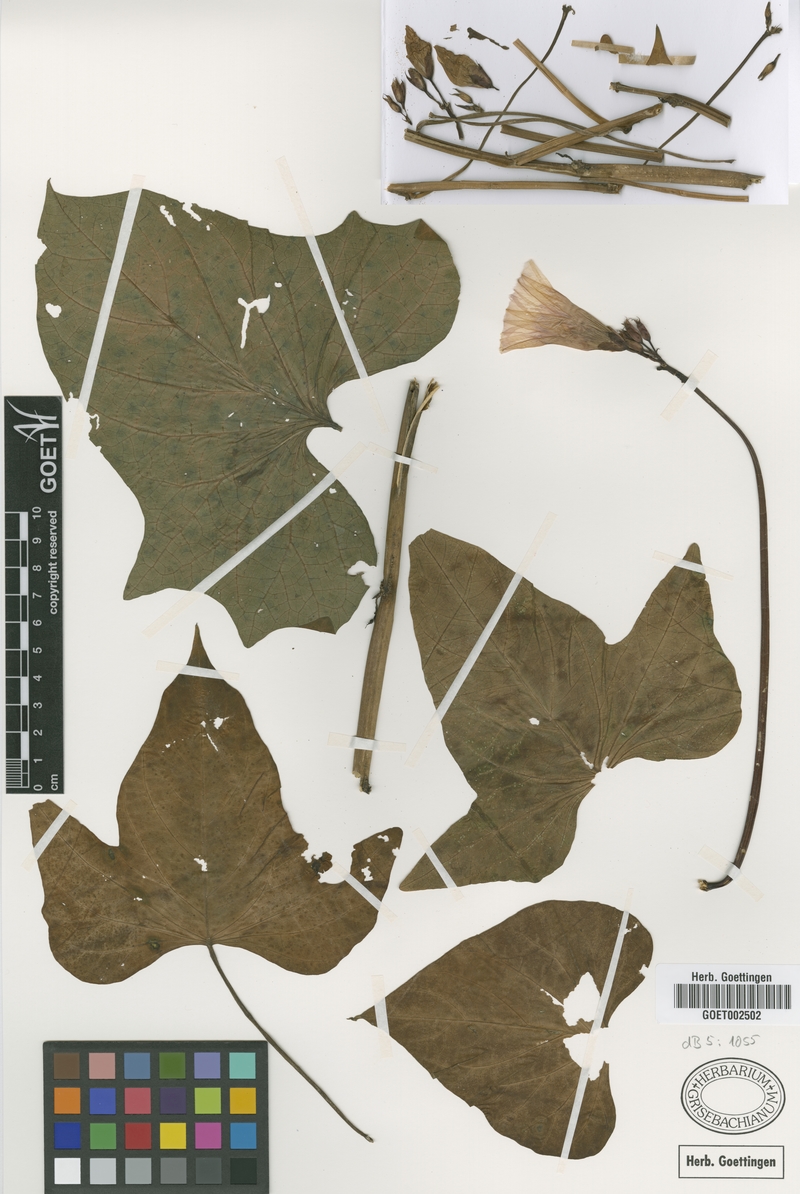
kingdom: Plantae
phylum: Tracheophyta
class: Magnoliopsida
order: Solanales
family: Convolvulaceae
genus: Ipomoea
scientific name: Ipomoea batatas
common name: Sweet-potato
